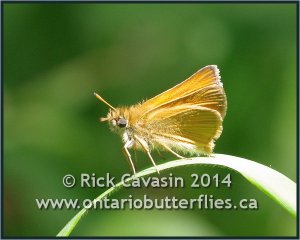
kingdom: Animalia
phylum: Arthropoda
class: Insecta
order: Lepidoptera
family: Hesperiidae
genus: Thymelicus
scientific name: Thymelicus lineola
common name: European Skipper
